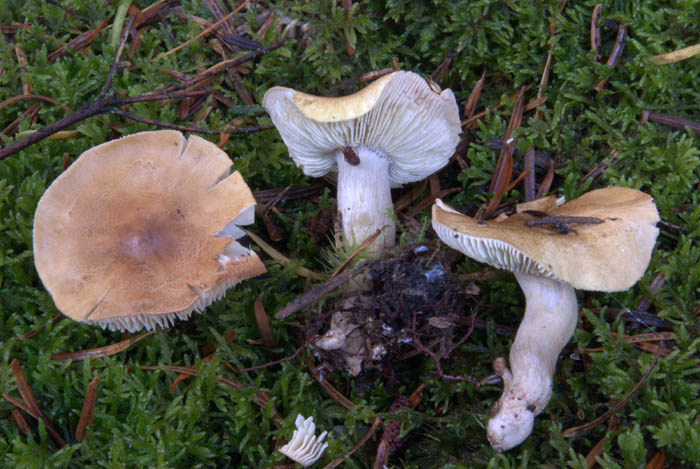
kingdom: Fungi
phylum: Basidiomycota
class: Agaricomycetes
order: Agaricales
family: Tricholomataceae
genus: Tricholoma
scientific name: Tricholoma aestuans
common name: kegle-ridderhat
